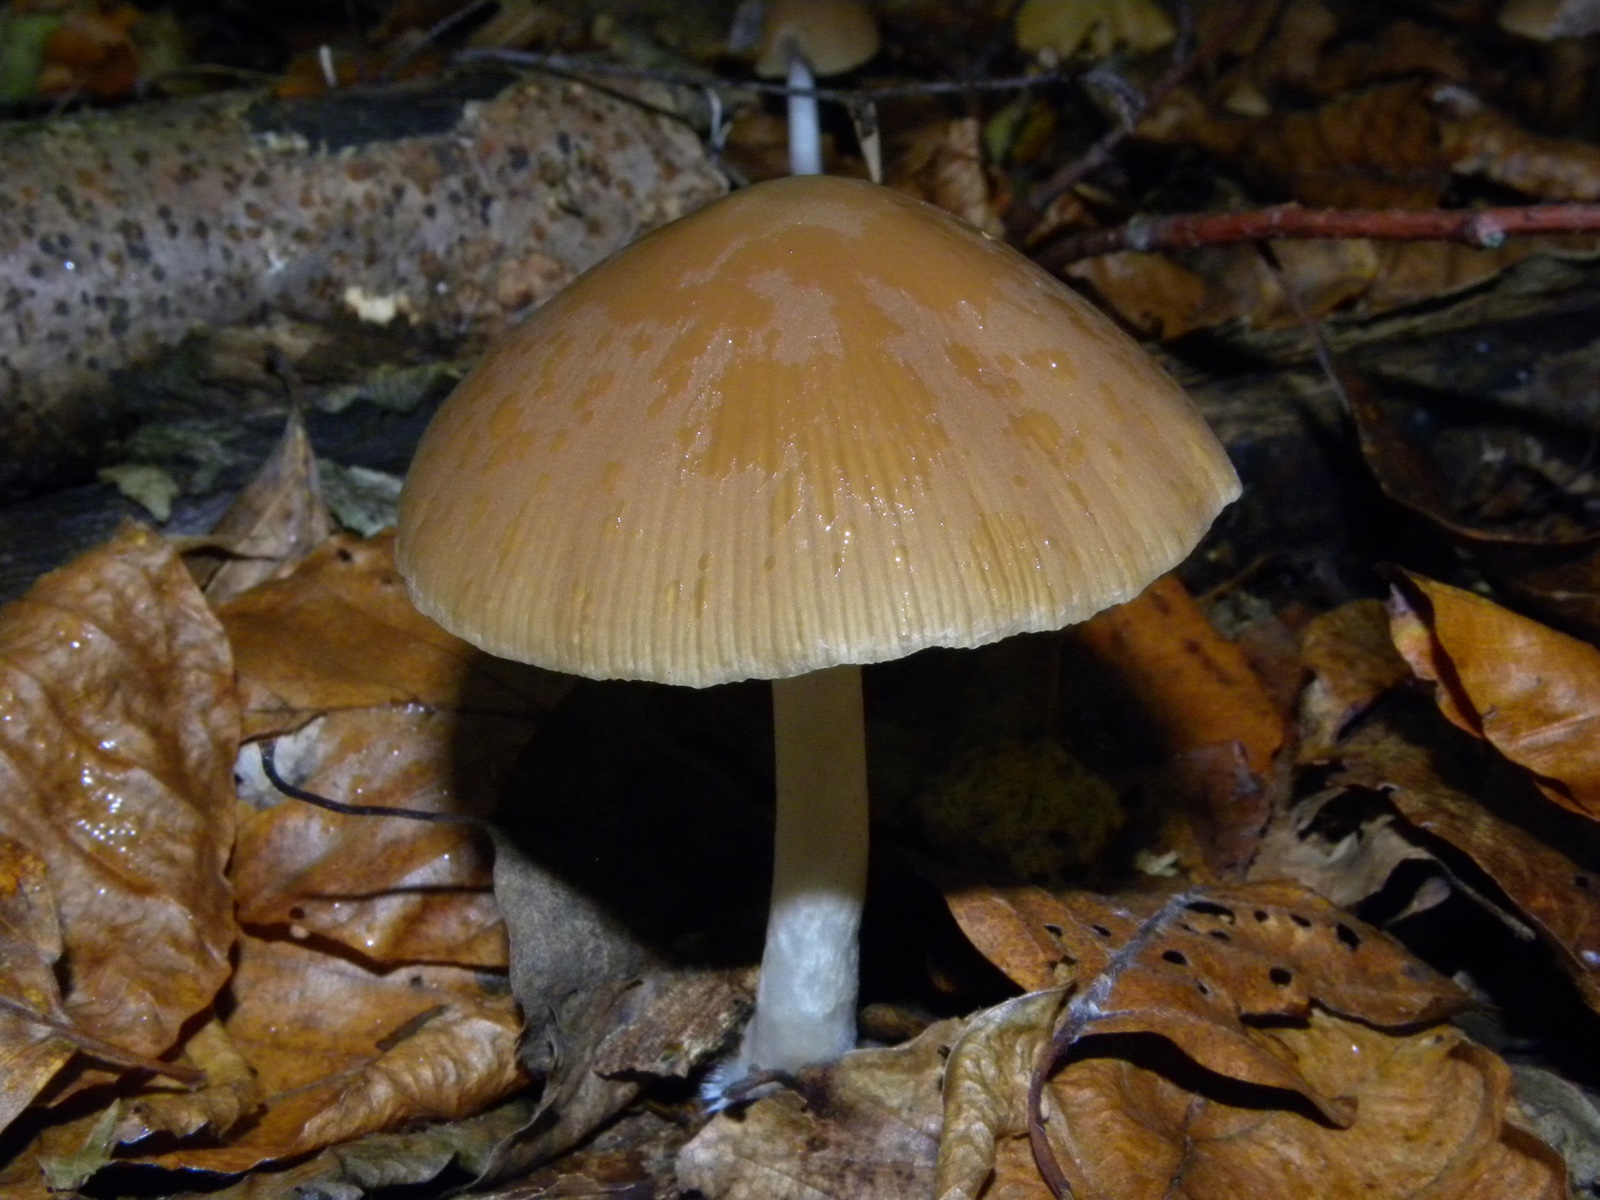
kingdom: Fungi
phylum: Basidiomycota
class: Agaricomycetes
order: Agaricales
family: Psathyrellaceae
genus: Psathyrella
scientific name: Psathyrella
